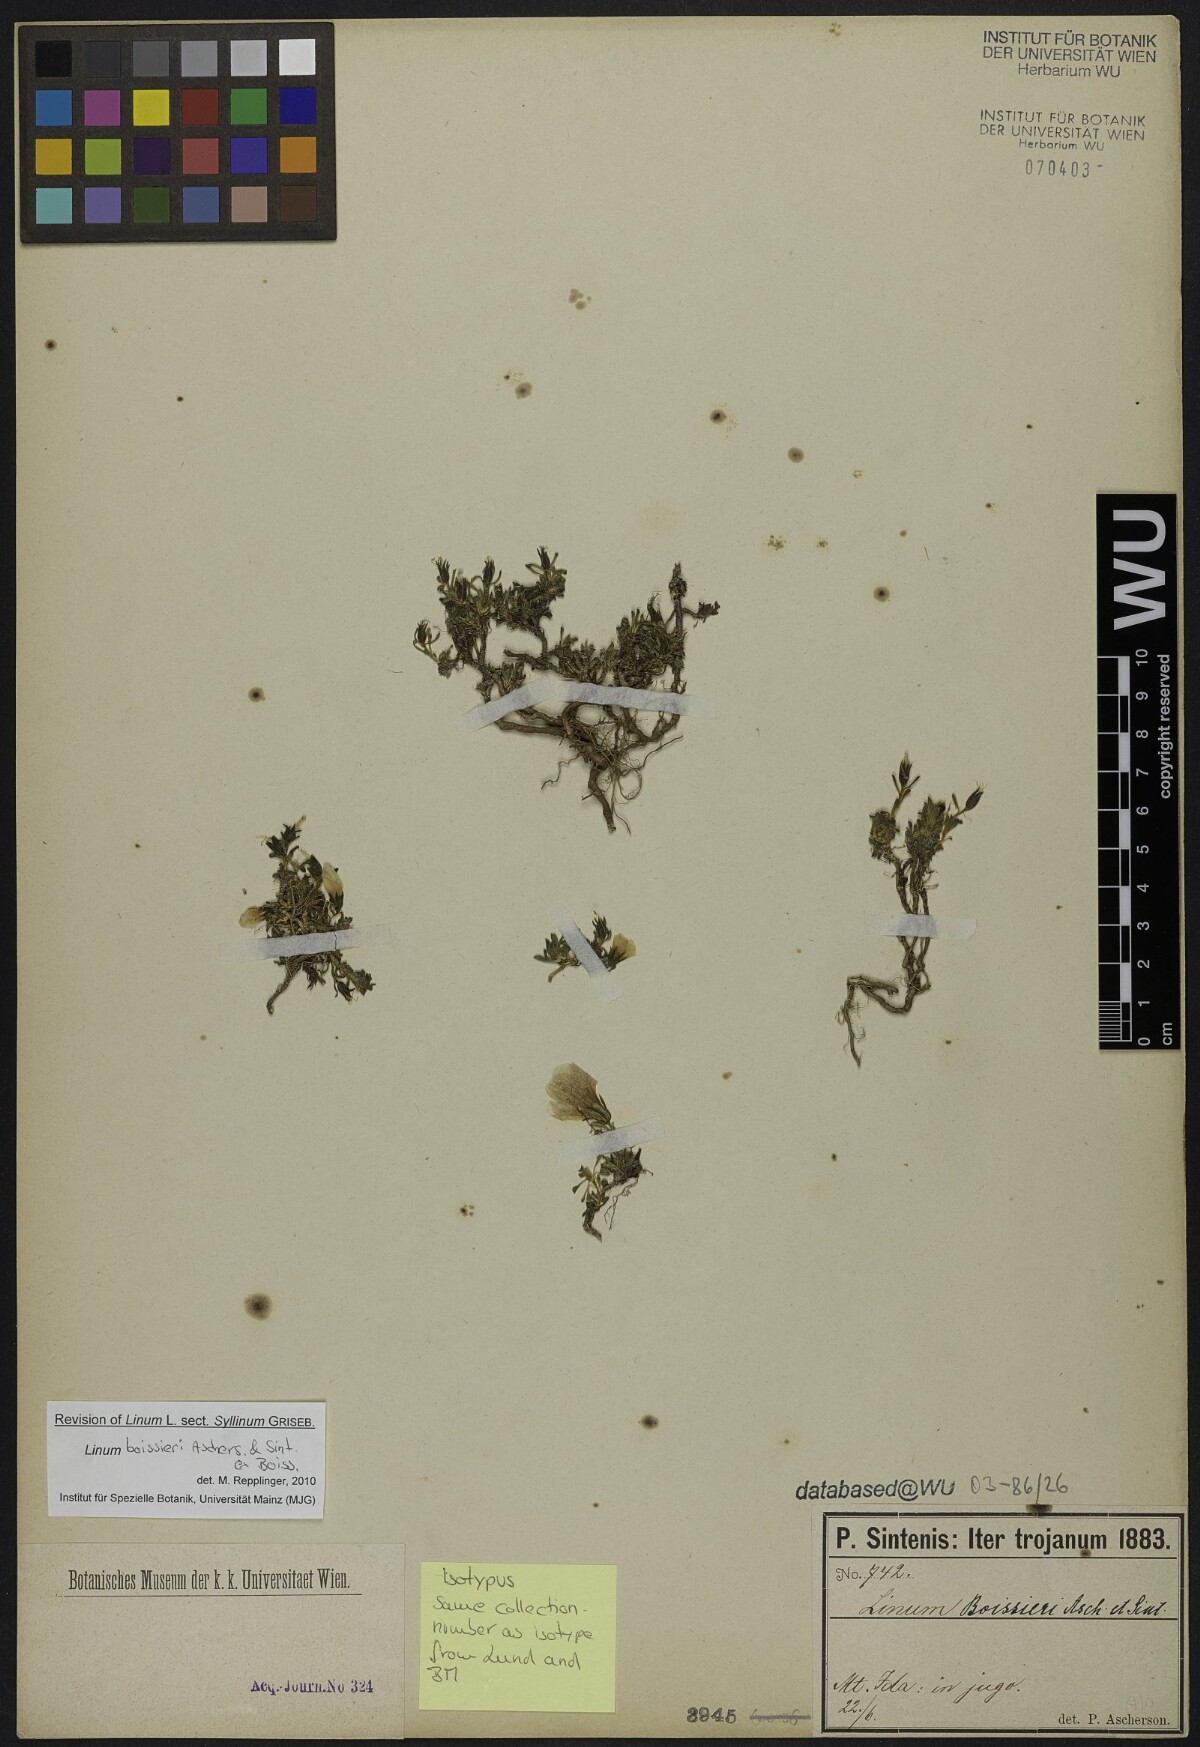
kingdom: Plantae
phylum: Tracheophyta
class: Magnoliopsida
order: Malpighiales
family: Linaceae
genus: Linum
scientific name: Linum boissieri
